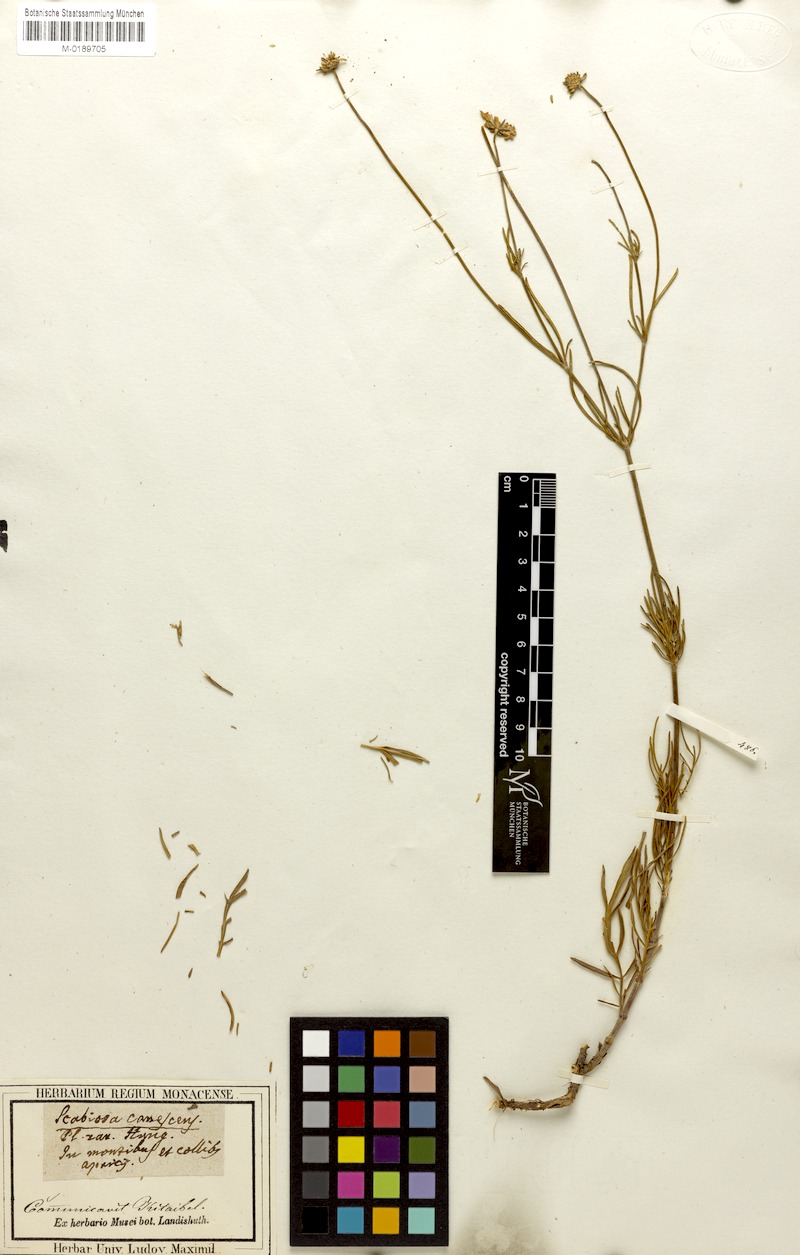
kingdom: Plantae
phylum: Tracheophyta
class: Magnoliopsida
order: Dipsacales
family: Caprifoliaceae
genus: Scabiosa
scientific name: Scabiosa canescens
